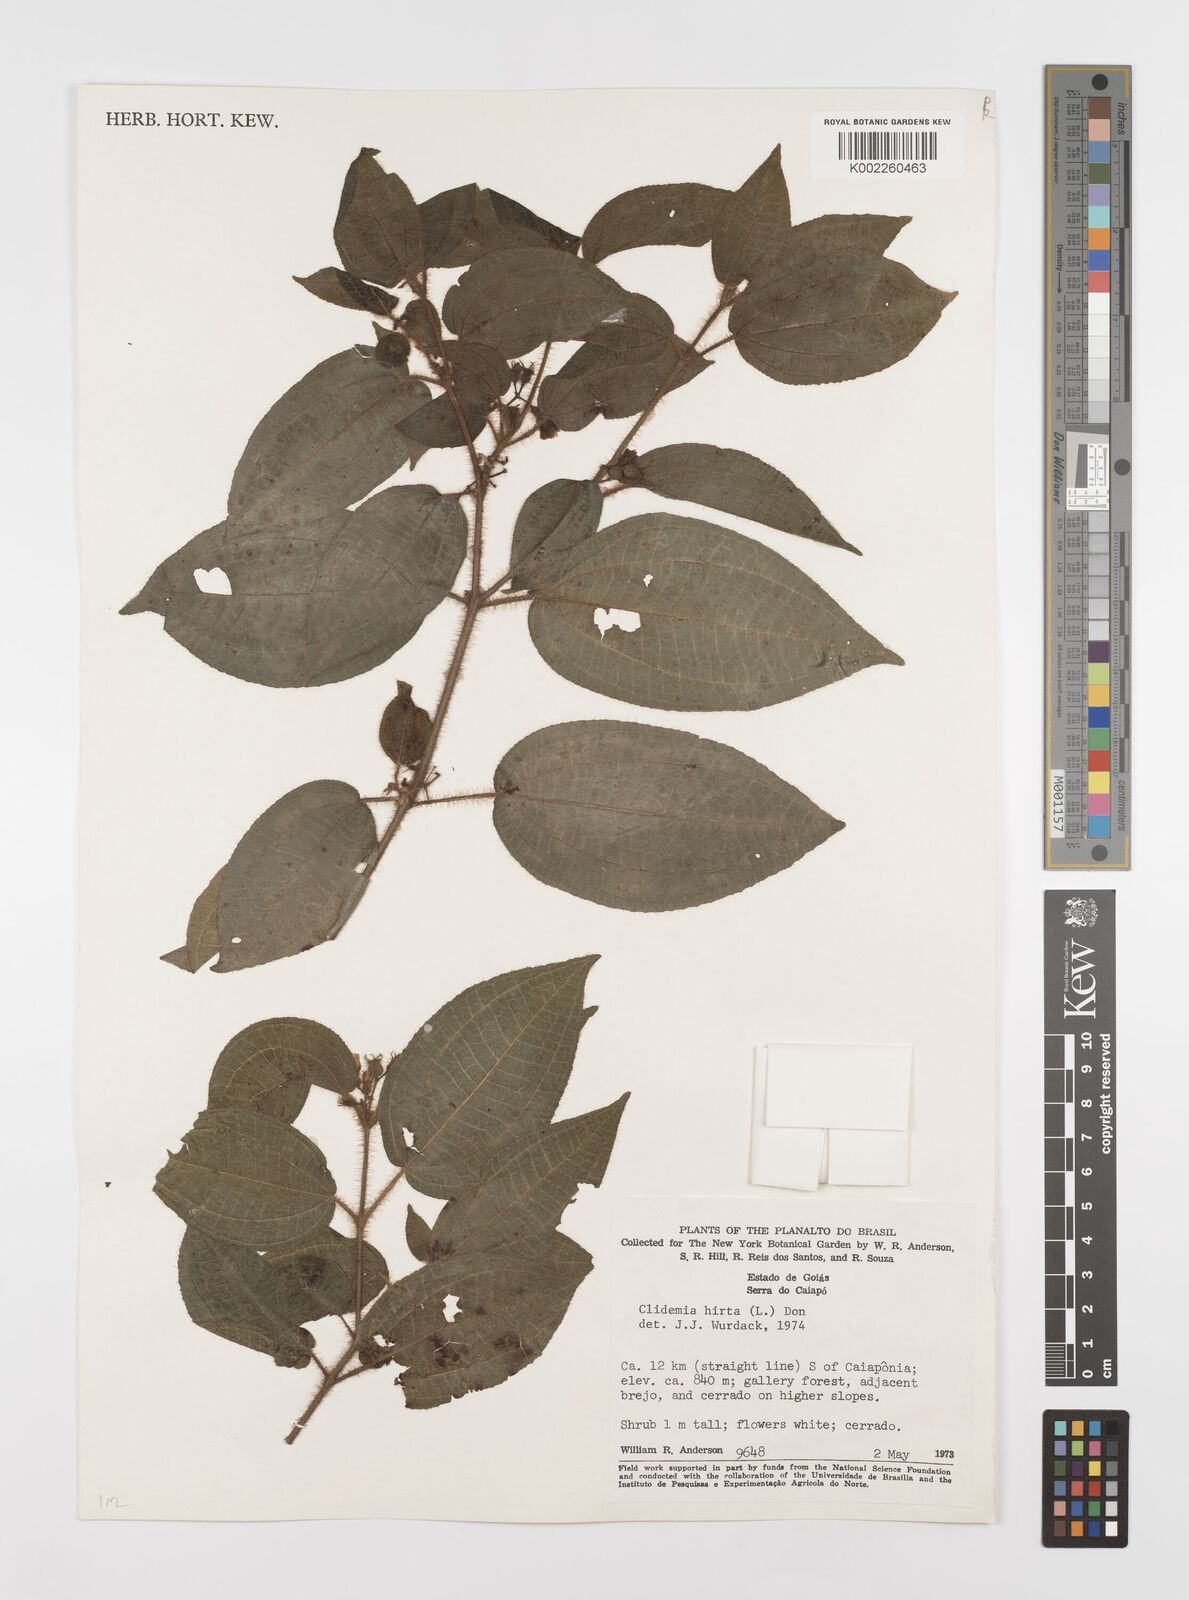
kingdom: Plantae
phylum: Tracheophyta
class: Magnoliopsida
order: Myrtales
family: Melastomataceae
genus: Miconia
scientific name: Miconia crenata
